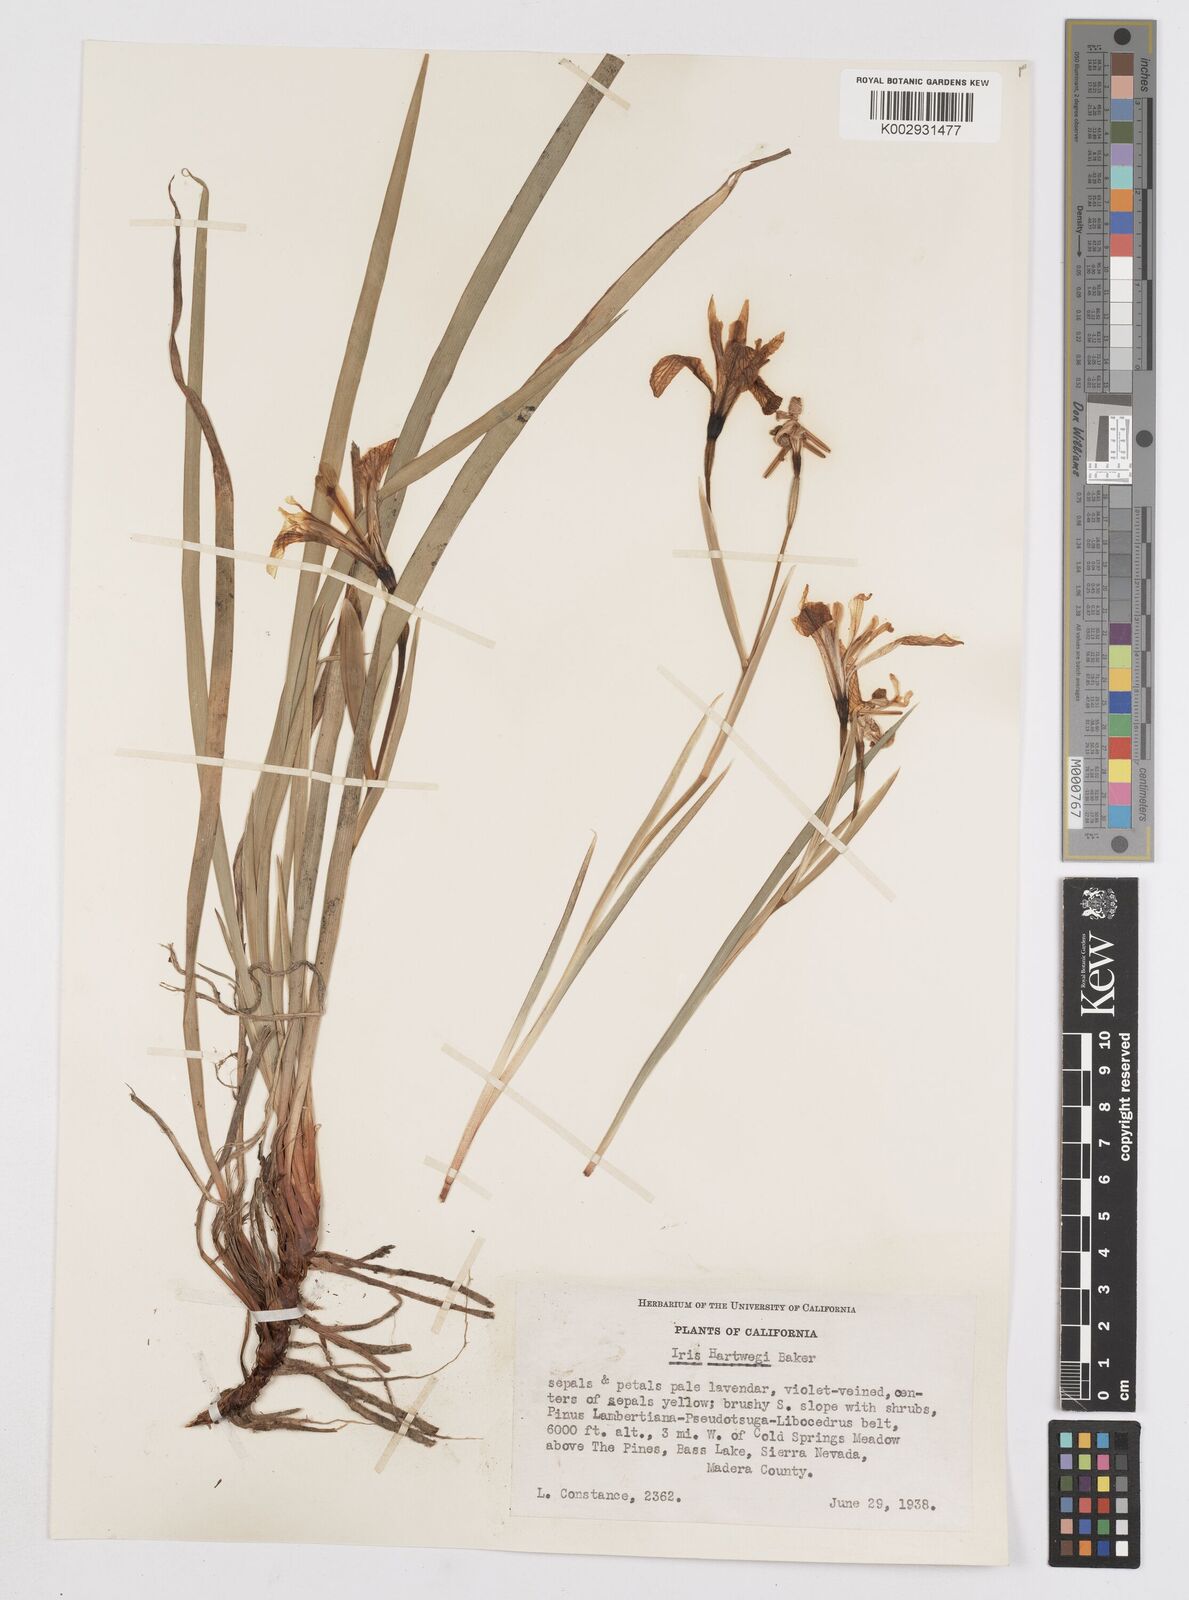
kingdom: Plantae
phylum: Tracheophyta
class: Liliopsida
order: Asparagales
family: Iridaceae
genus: Iris
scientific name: Iris hartwegii
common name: Sierra iris
